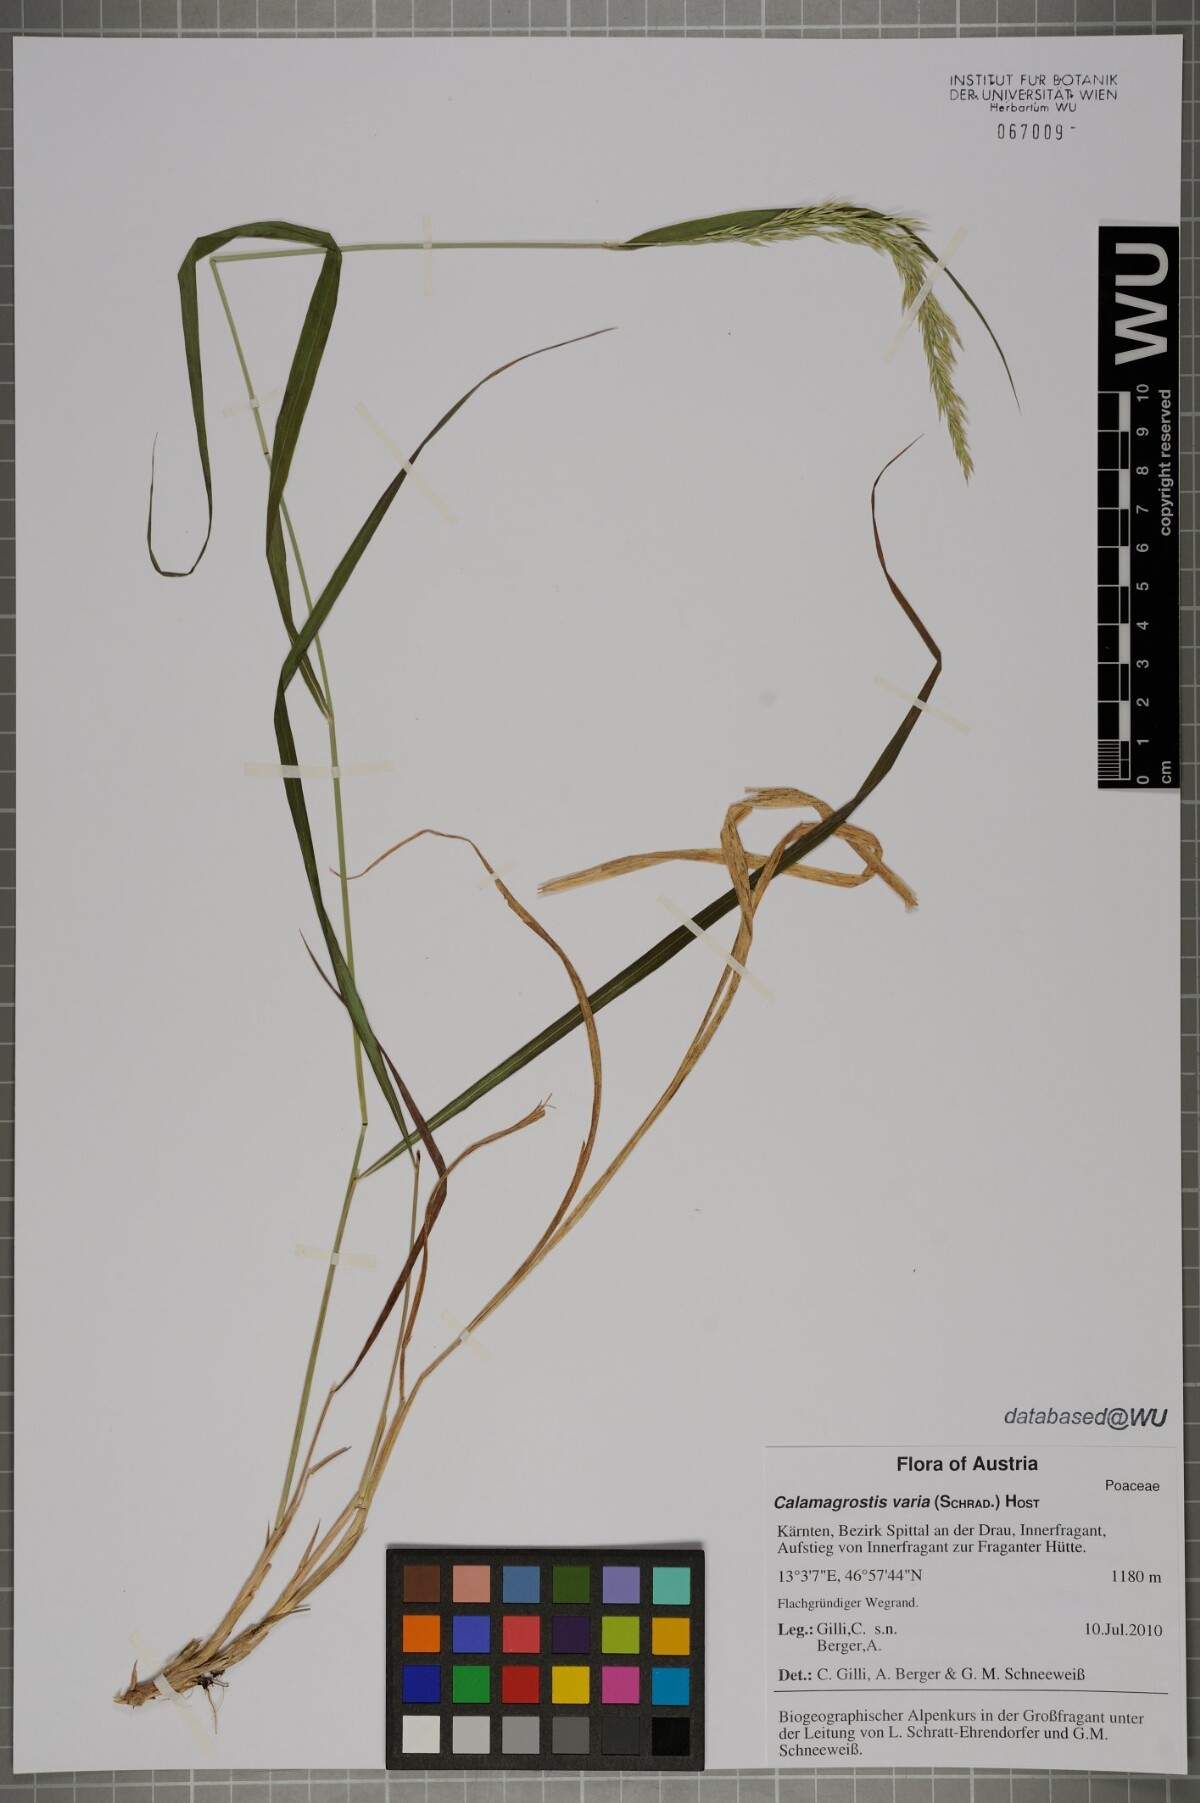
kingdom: Plantae
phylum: Tracheophyta
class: Liliopsida
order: Poales
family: Poaceae
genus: Calamagrostis
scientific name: Calamagrostis varia
